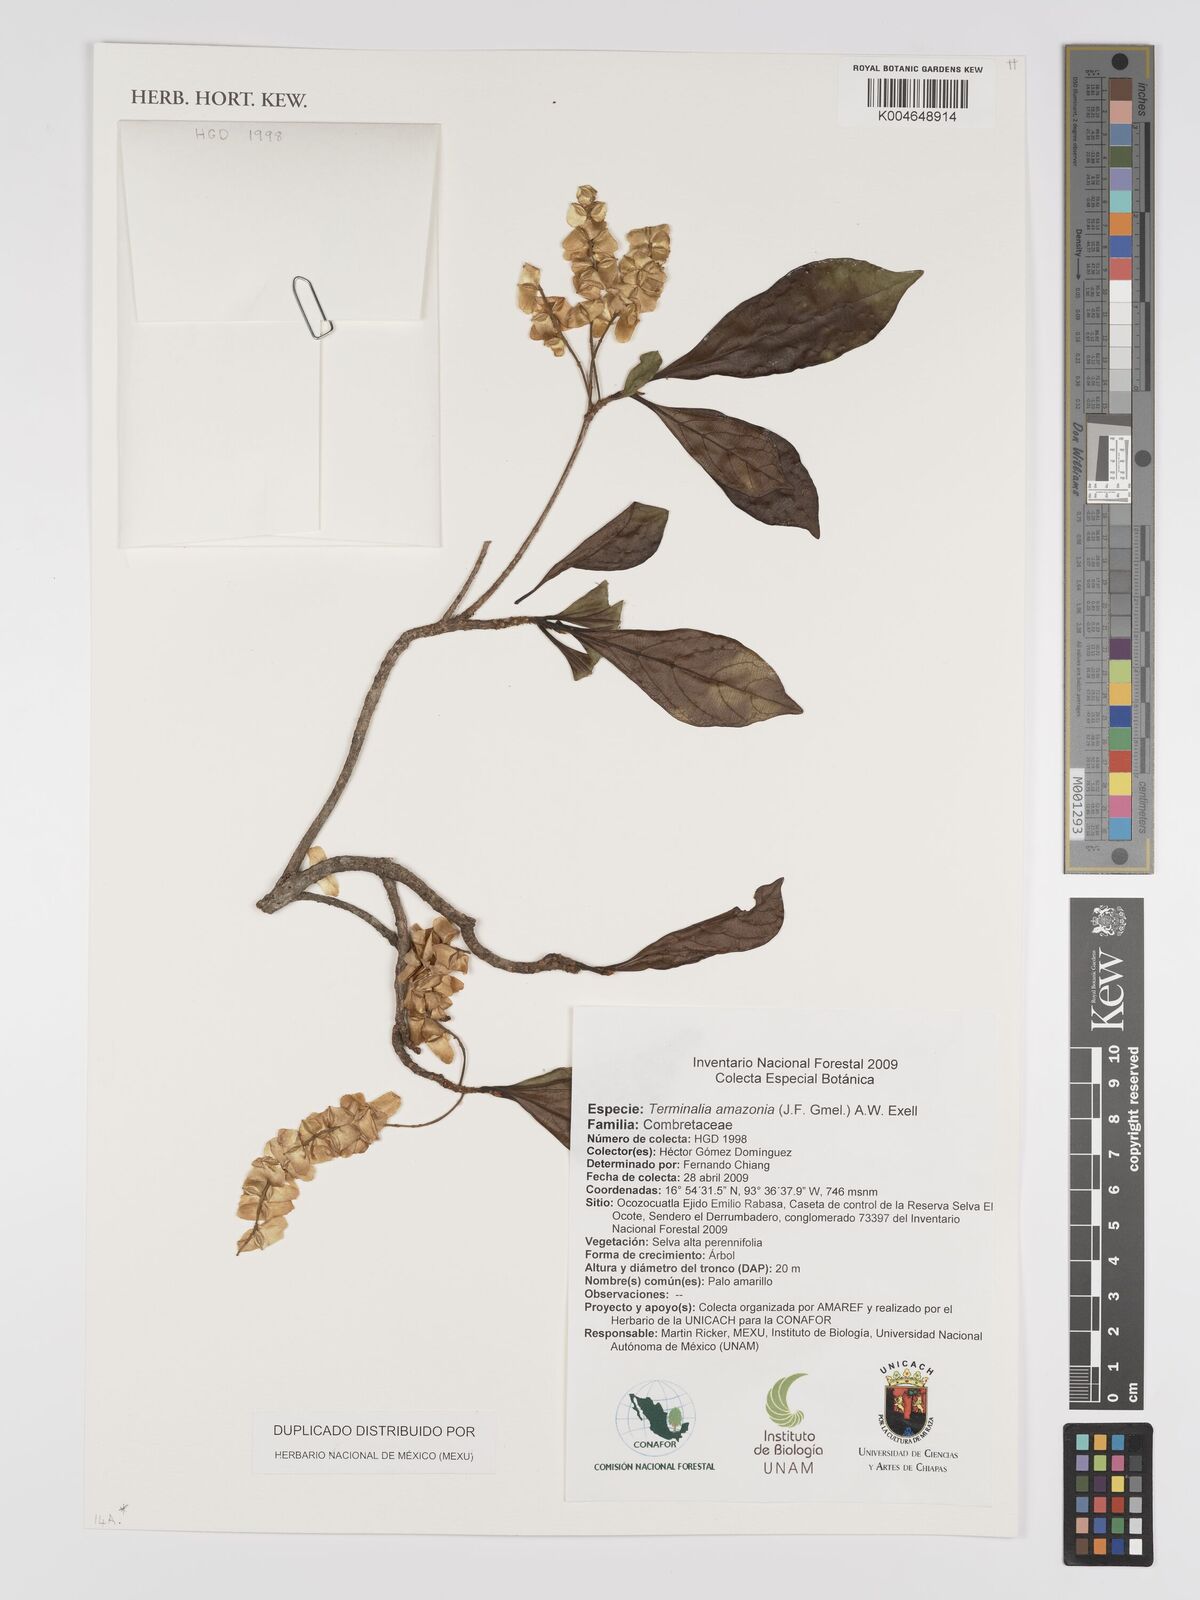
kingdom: Plantae
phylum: Tracheophyta
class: Magnoliopsida
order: Myrtales
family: Combretaceae
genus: Terminalia
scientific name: Terminalia amazonica
